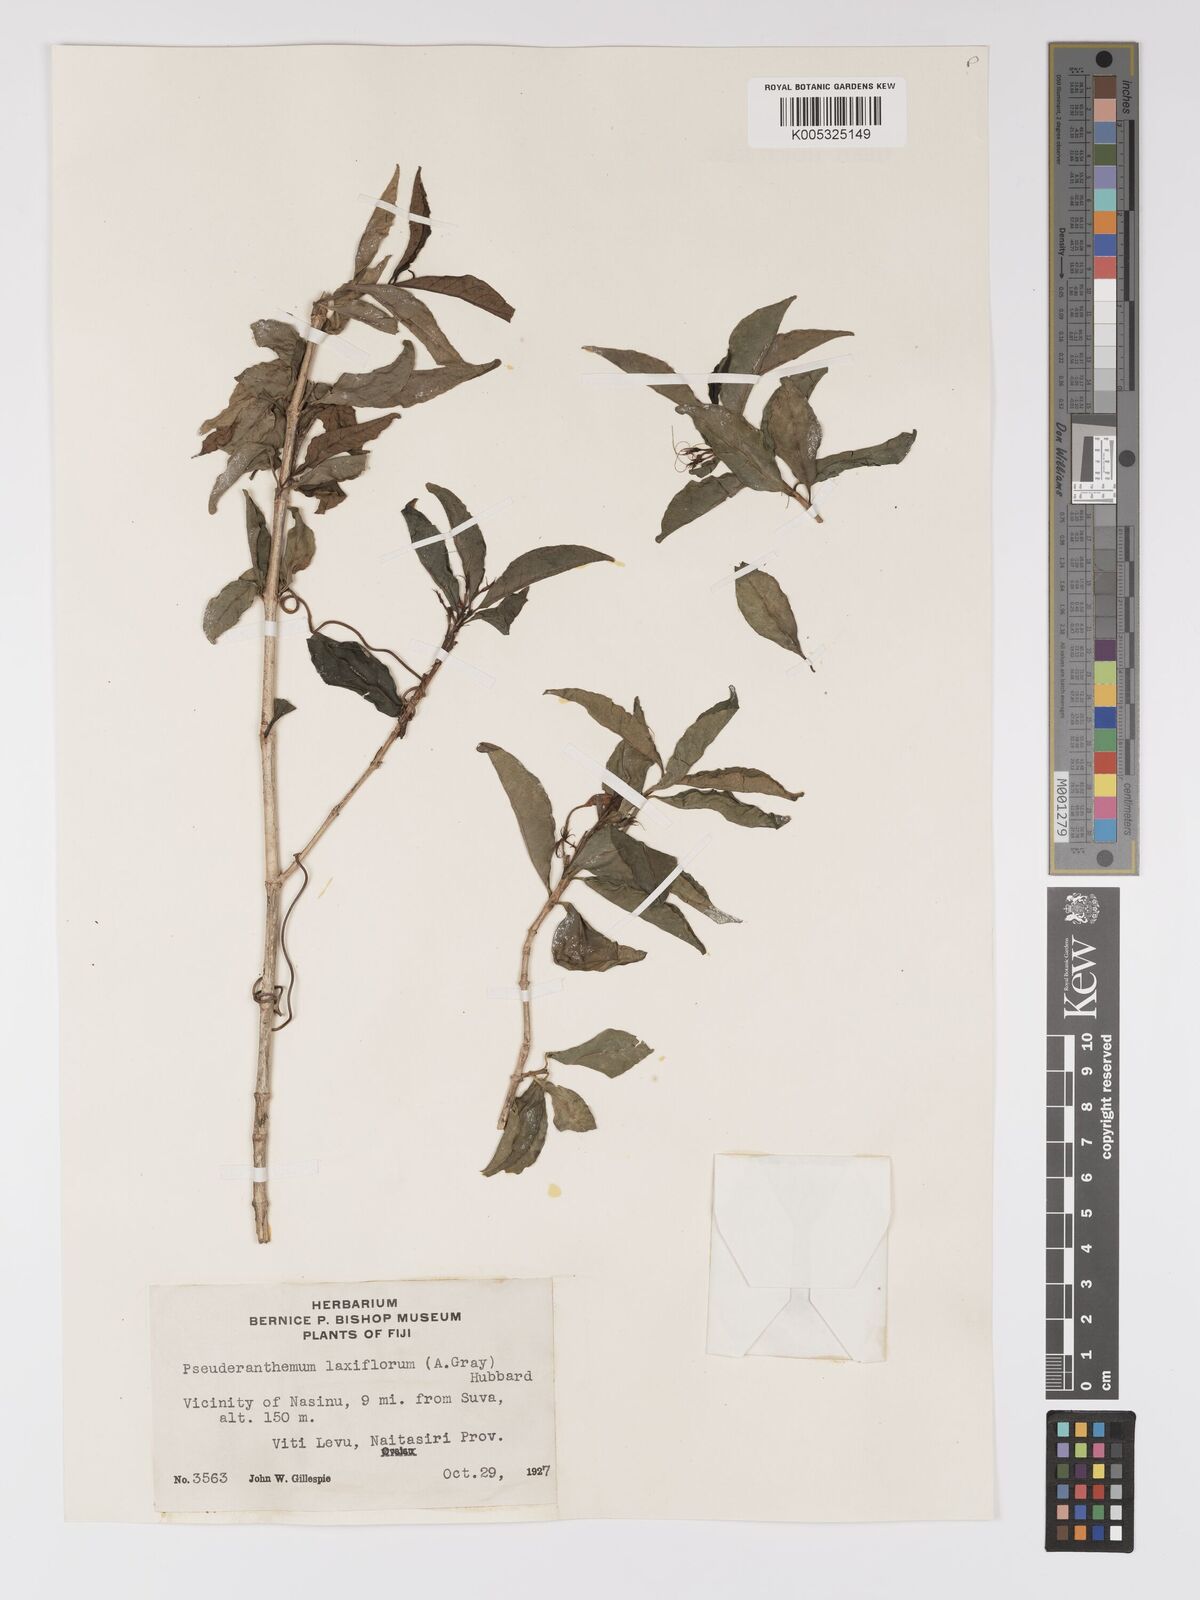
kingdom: Plantae
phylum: Tracheophyta
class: Magnoliopsida
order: Lamiales
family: Acanthaceae
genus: Pseuderanthemum
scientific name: Pseuderanthemum laxiflorum
